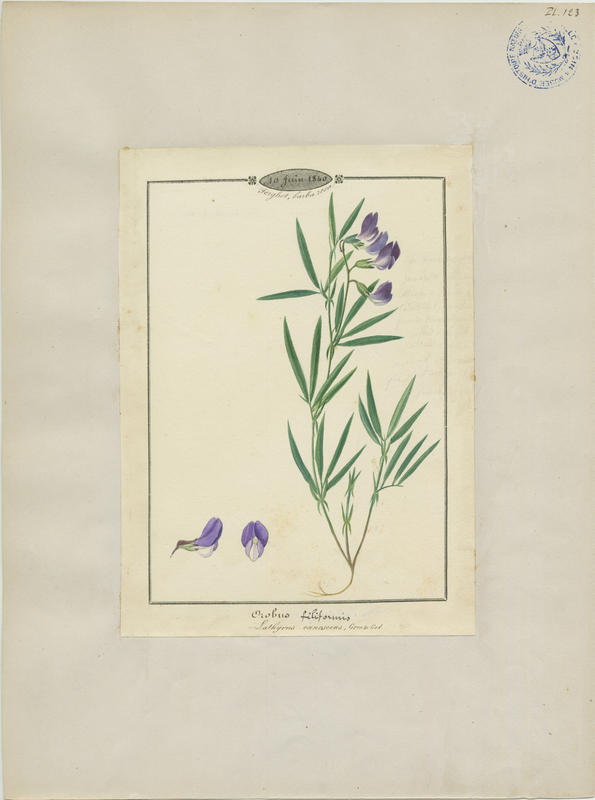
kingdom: Plantae
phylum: Tracheophyta
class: Magnoliopsida
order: Fabales
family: Fabaceae
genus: Lathyrus
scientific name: Lathyrus filiformis
